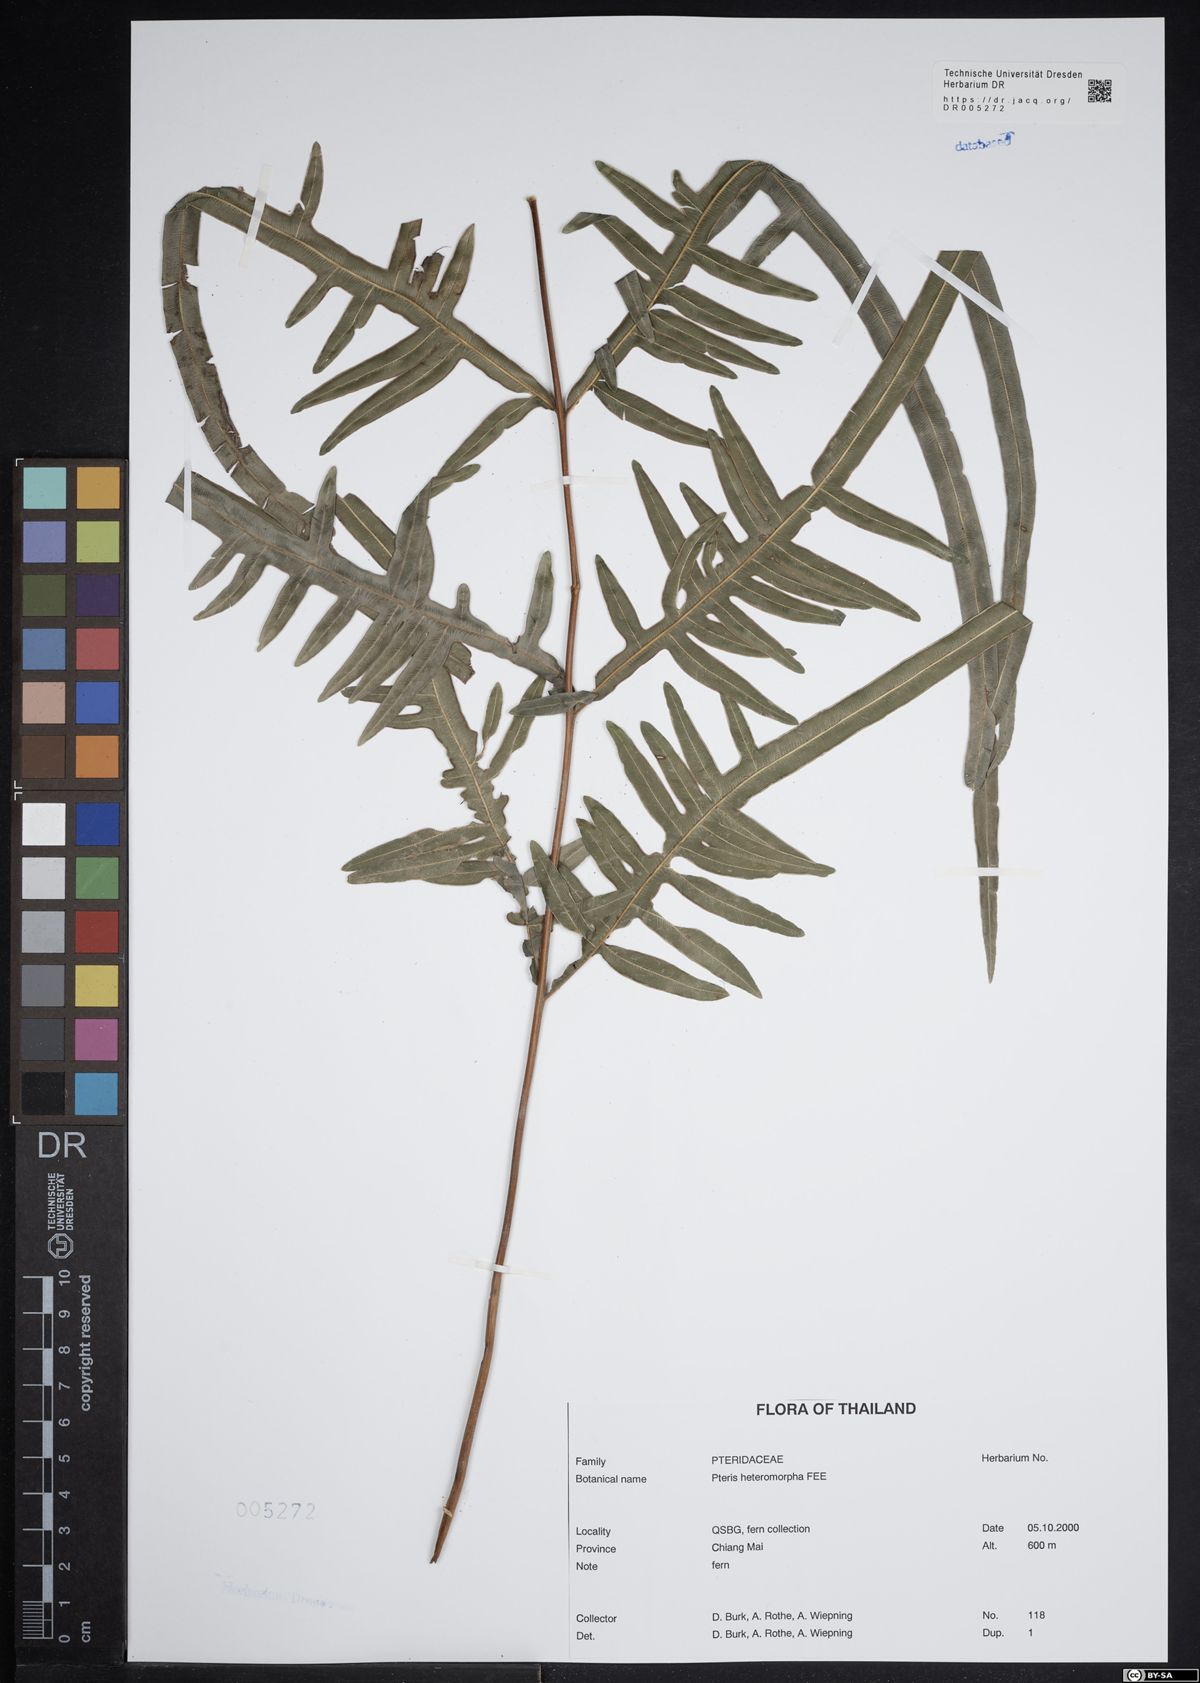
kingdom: Plantae
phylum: Tracheophyta
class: Polypodiopsida
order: Polypodiales
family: Pteridaceae
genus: Pteris
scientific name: Pteris heteromorpha
